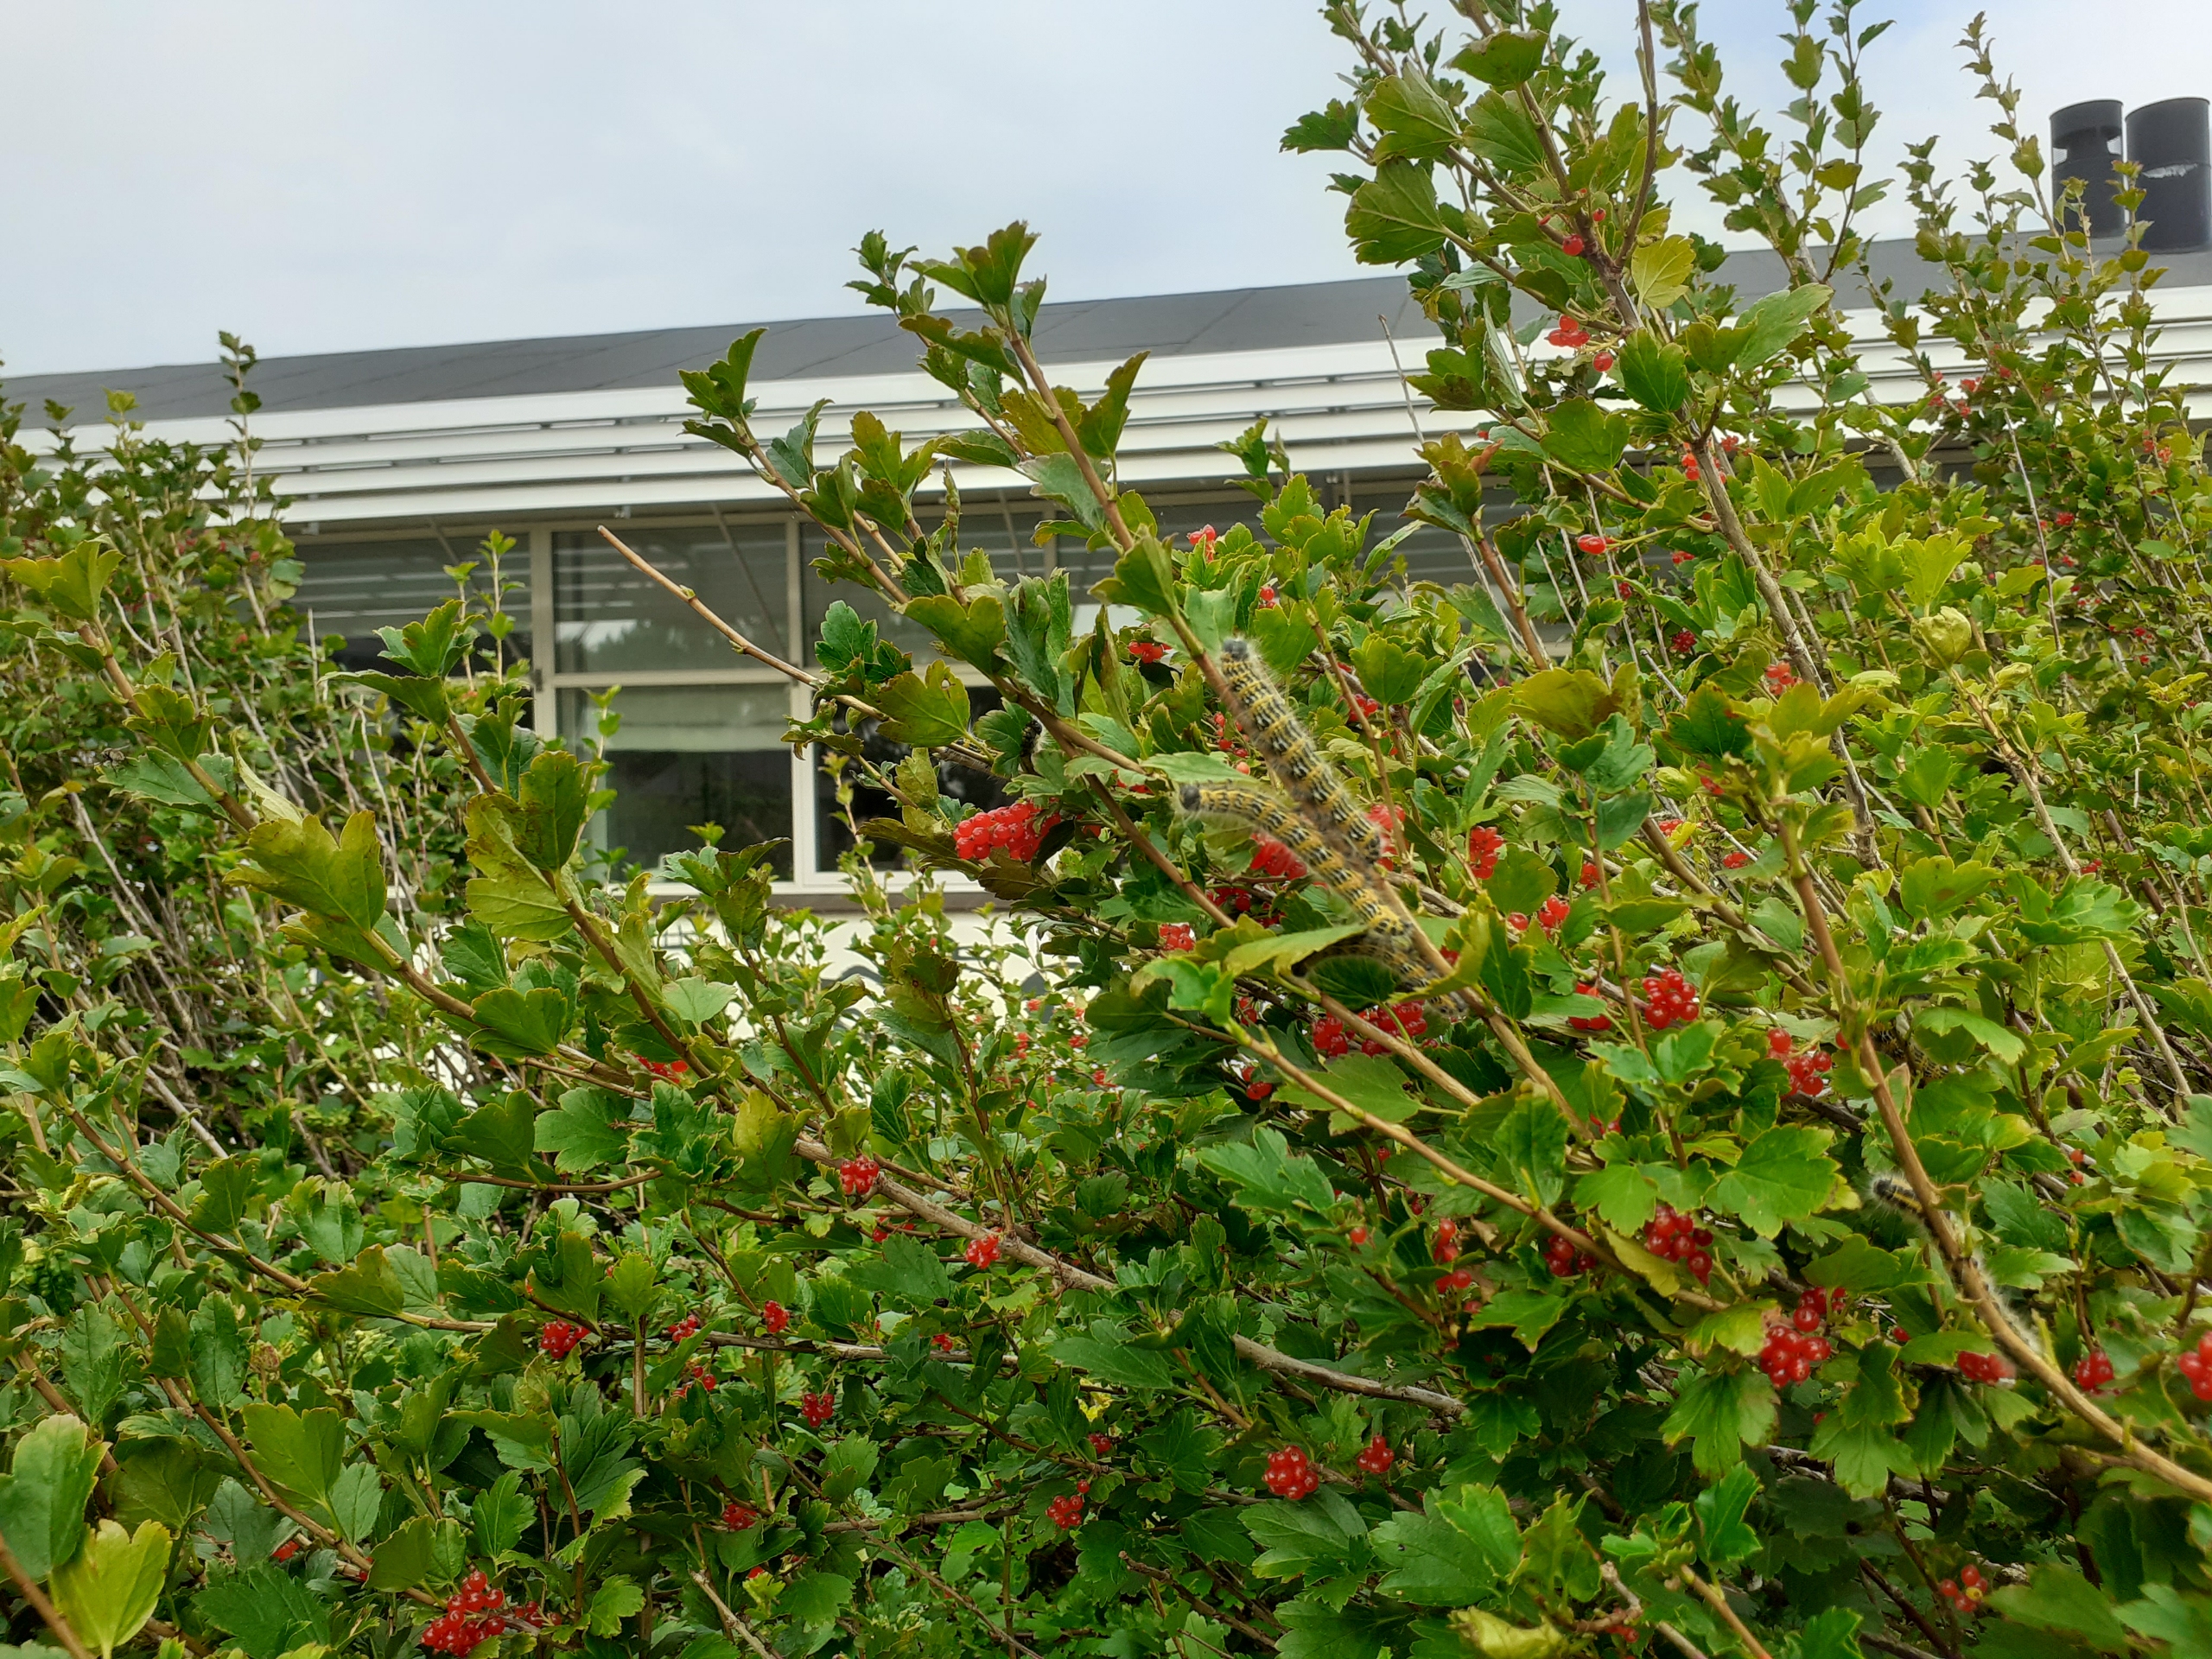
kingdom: Animalia
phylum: Arthropoda
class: Insecta
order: Lepidoptera
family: Notodontidae
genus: Phalera
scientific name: Phalera bucephala
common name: Måneplet
